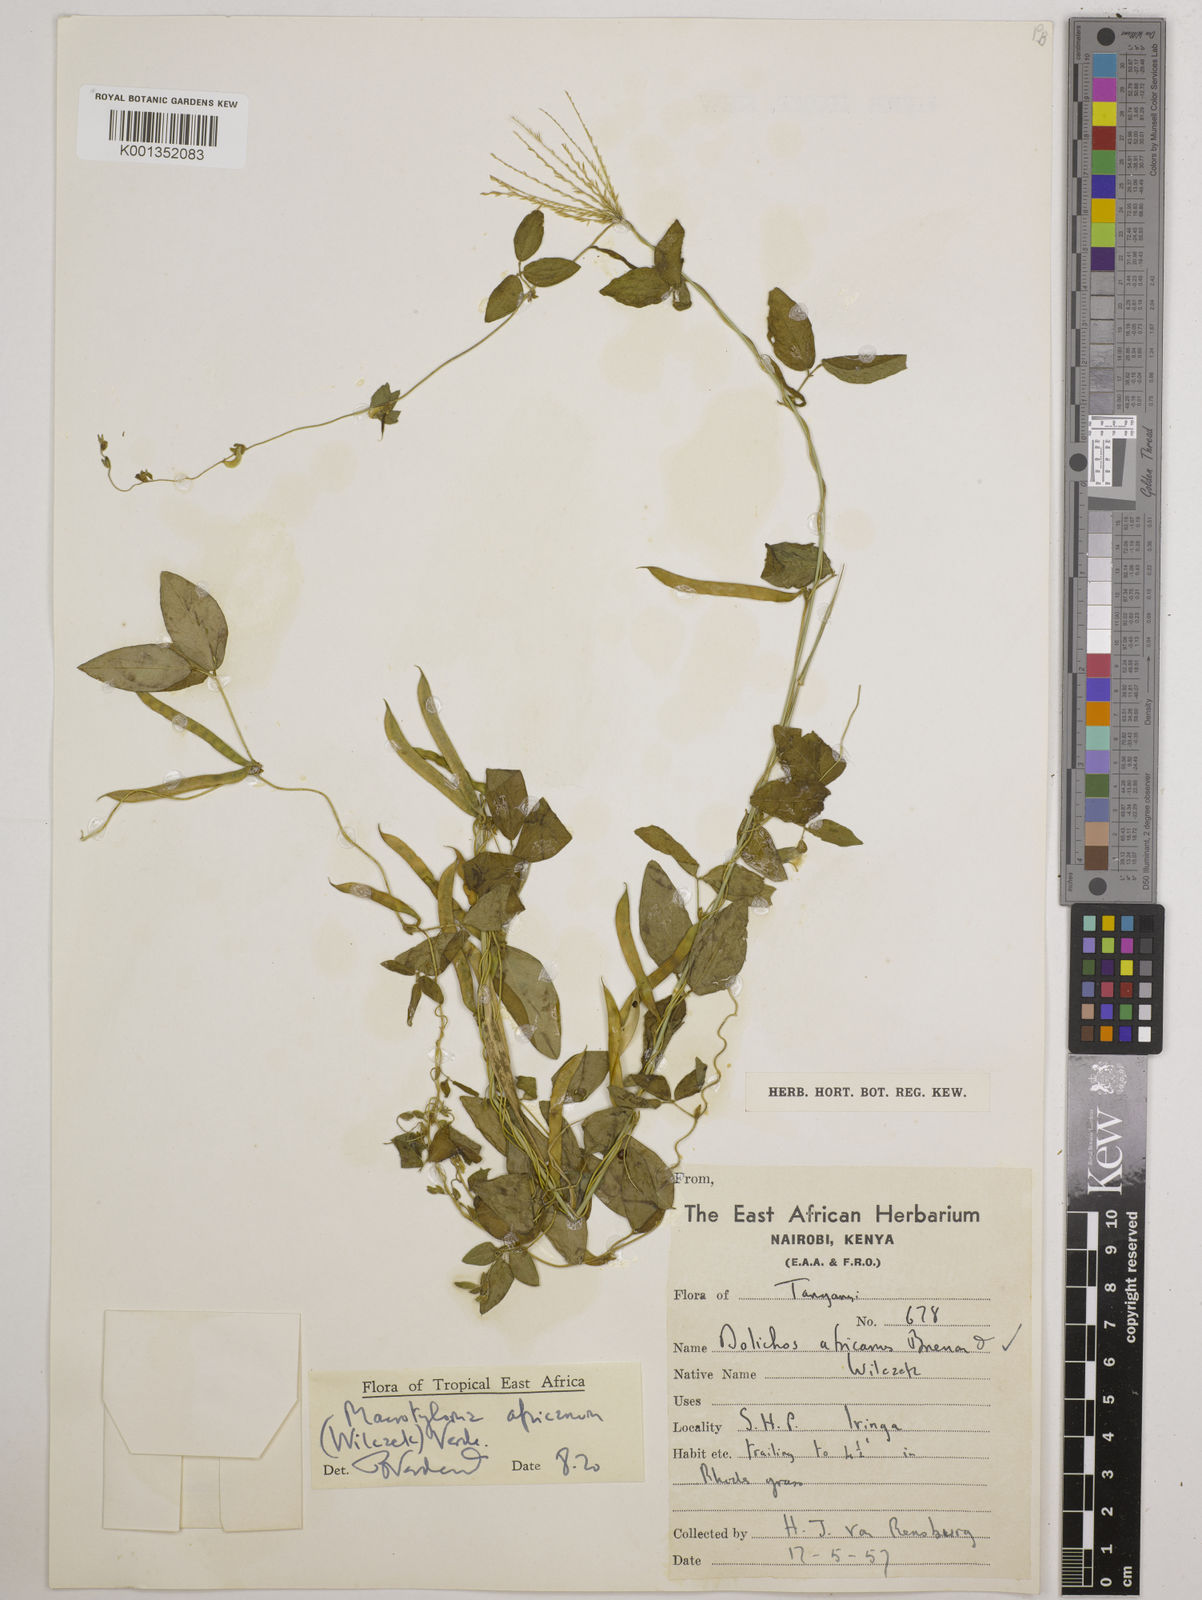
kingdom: Plantae
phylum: Tracheophyta
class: Magnoliopsida
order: Fabales
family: Fabaceae
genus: Macrotyloma
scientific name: Macrotyloma africanum
